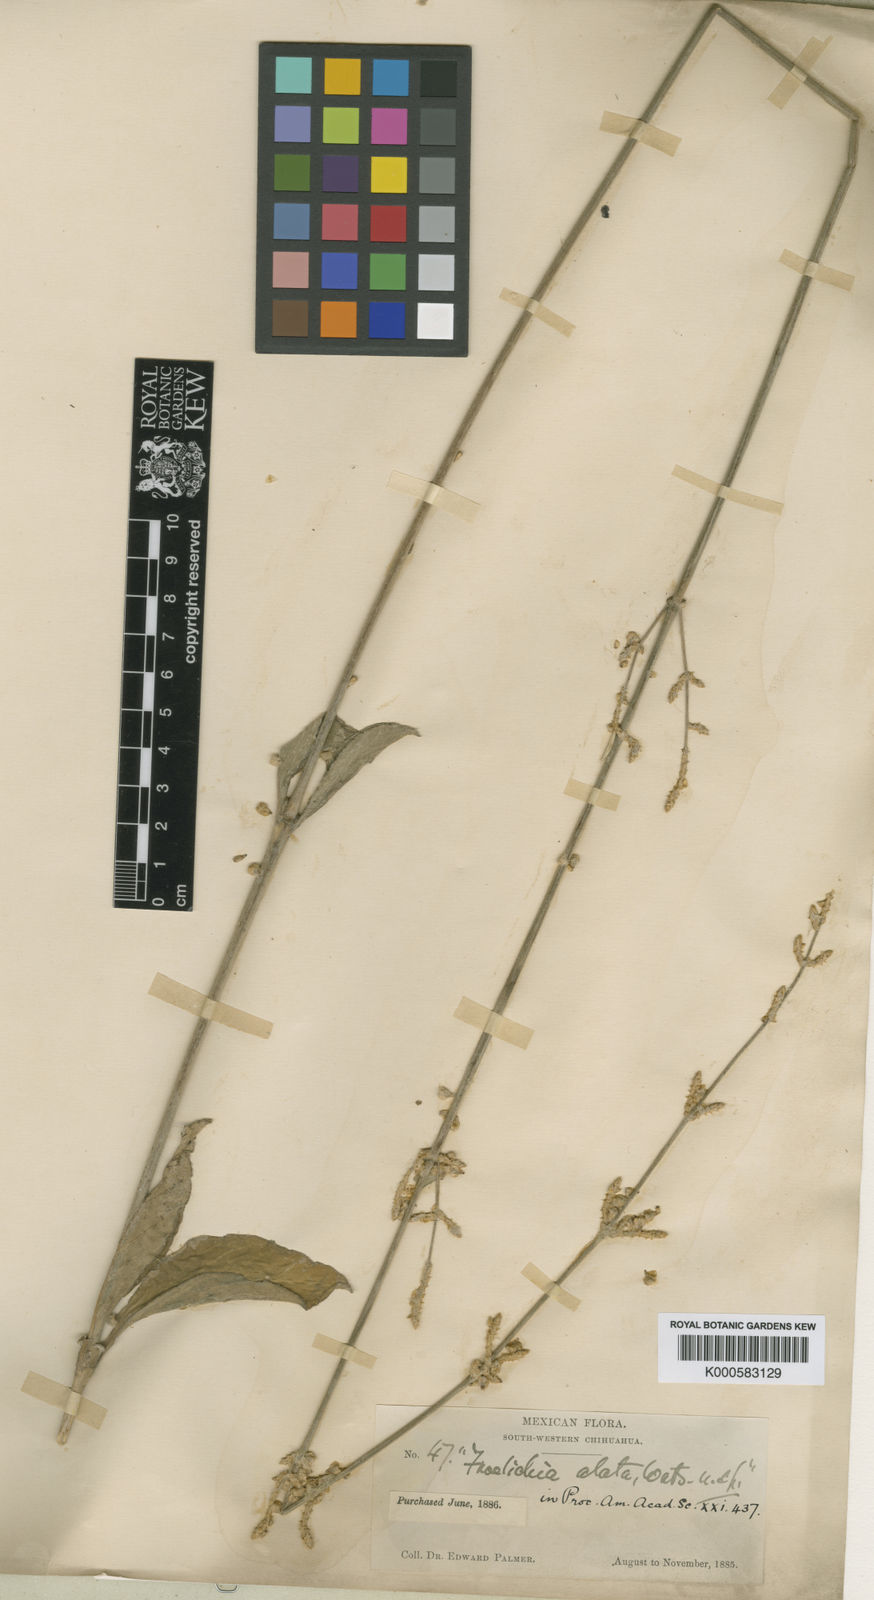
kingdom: Plantae
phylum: Tracheophyta
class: Magnoliopsida
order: Caryophyllales
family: Amaranthaceae
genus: Froelichia
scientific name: Froelichia interrupta
